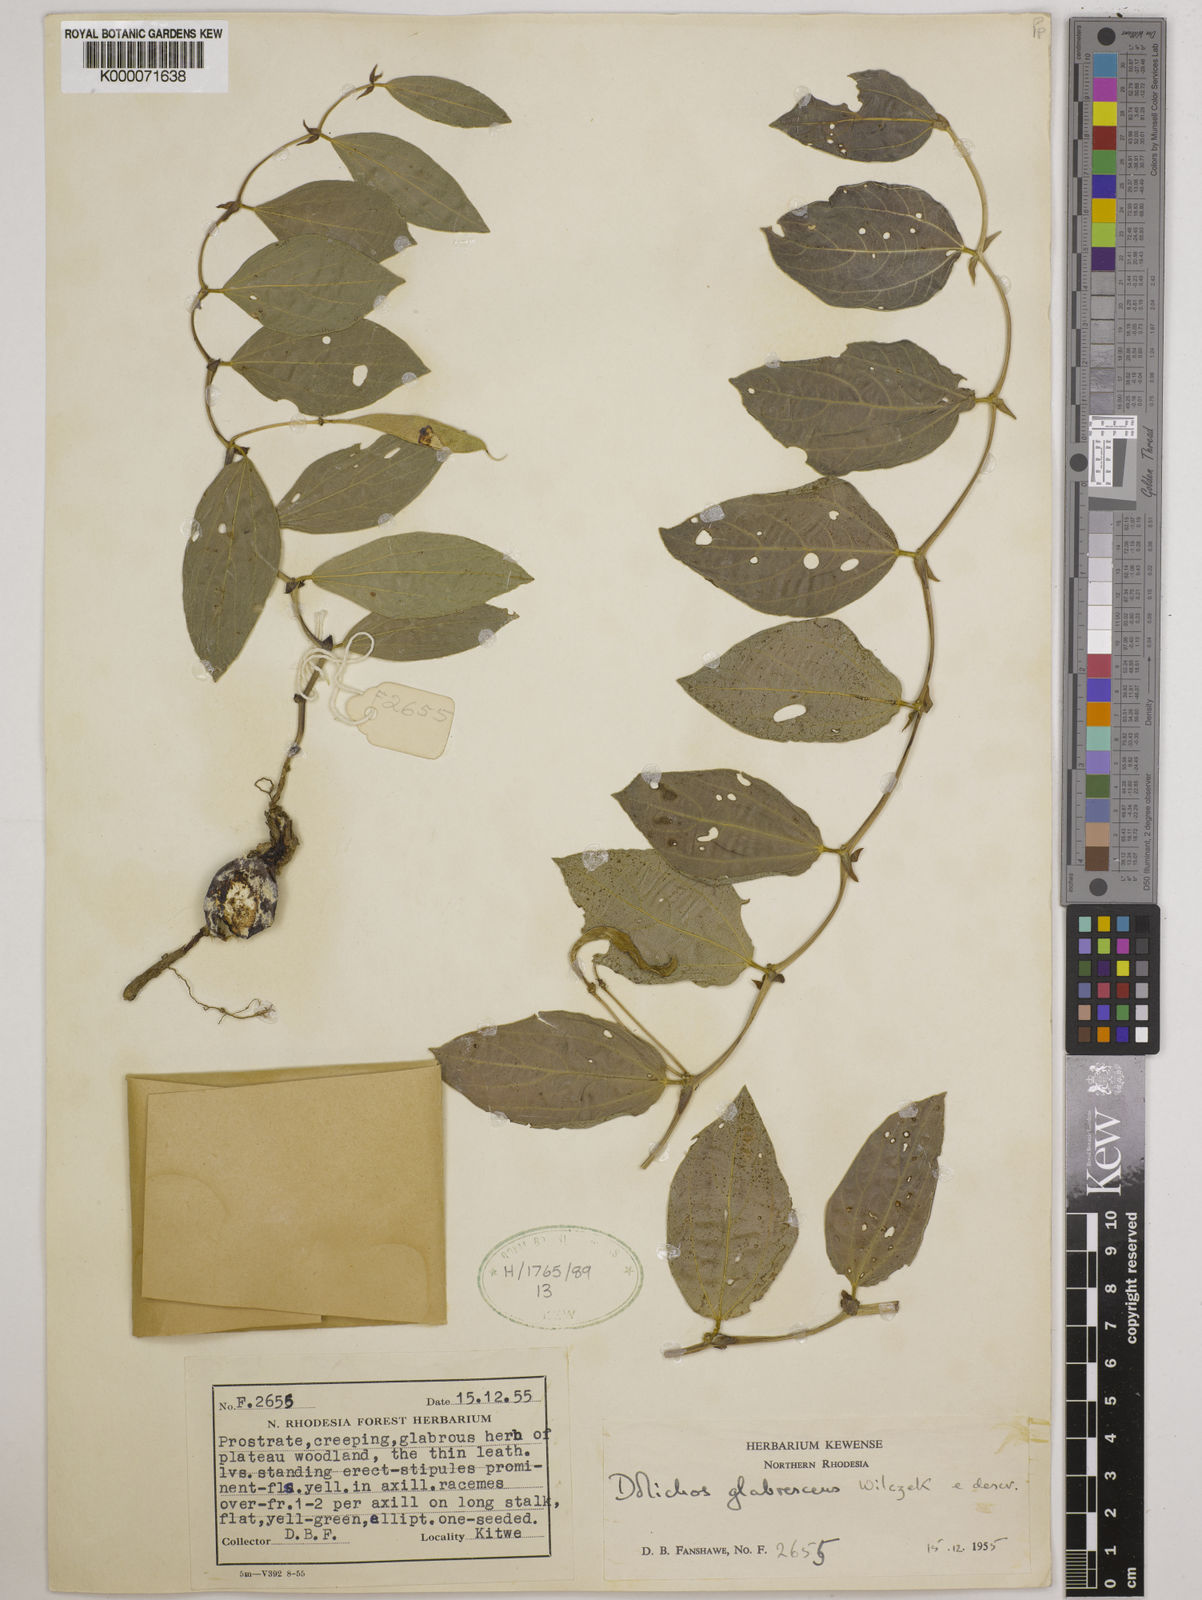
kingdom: Plantae
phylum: Tracheophyta
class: Magnoliopsida
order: Fabales
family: Fabaceae
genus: Dolichos
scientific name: Dolichos
